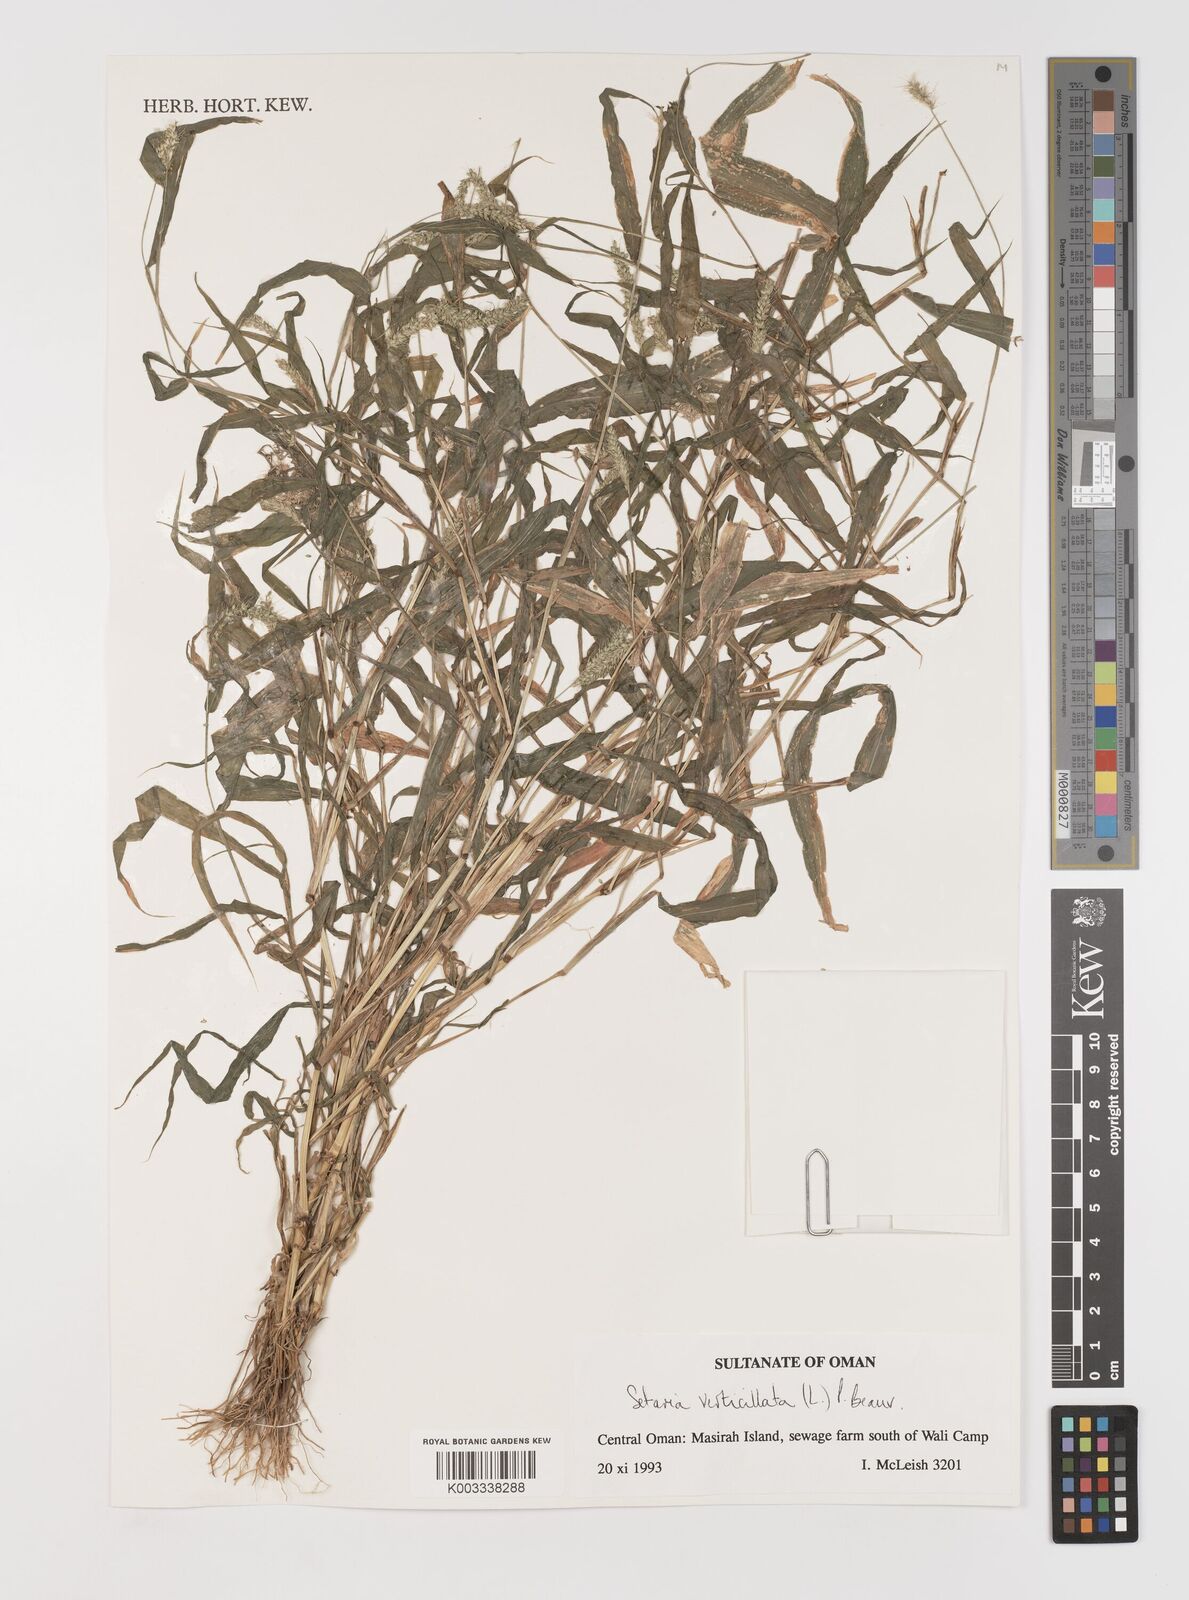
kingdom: Plantae
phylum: Tracheophyta
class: Liliopsida
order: Poales
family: Poaceae
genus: Setaria
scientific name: Setaria verticillata
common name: Hooked bristlegrass
